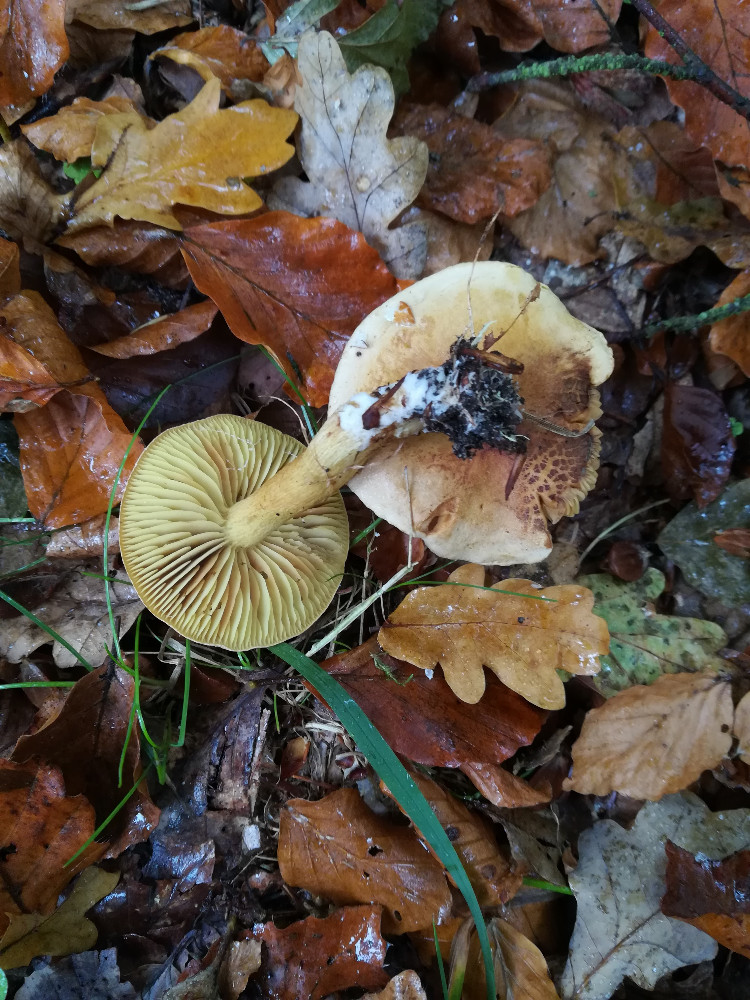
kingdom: Fungi
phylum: Basidiomycota
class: Agaricomycetes
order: Agaricales
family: Tricholomataceae
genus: Tricholoma
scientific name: Tricholoma sulphureum
